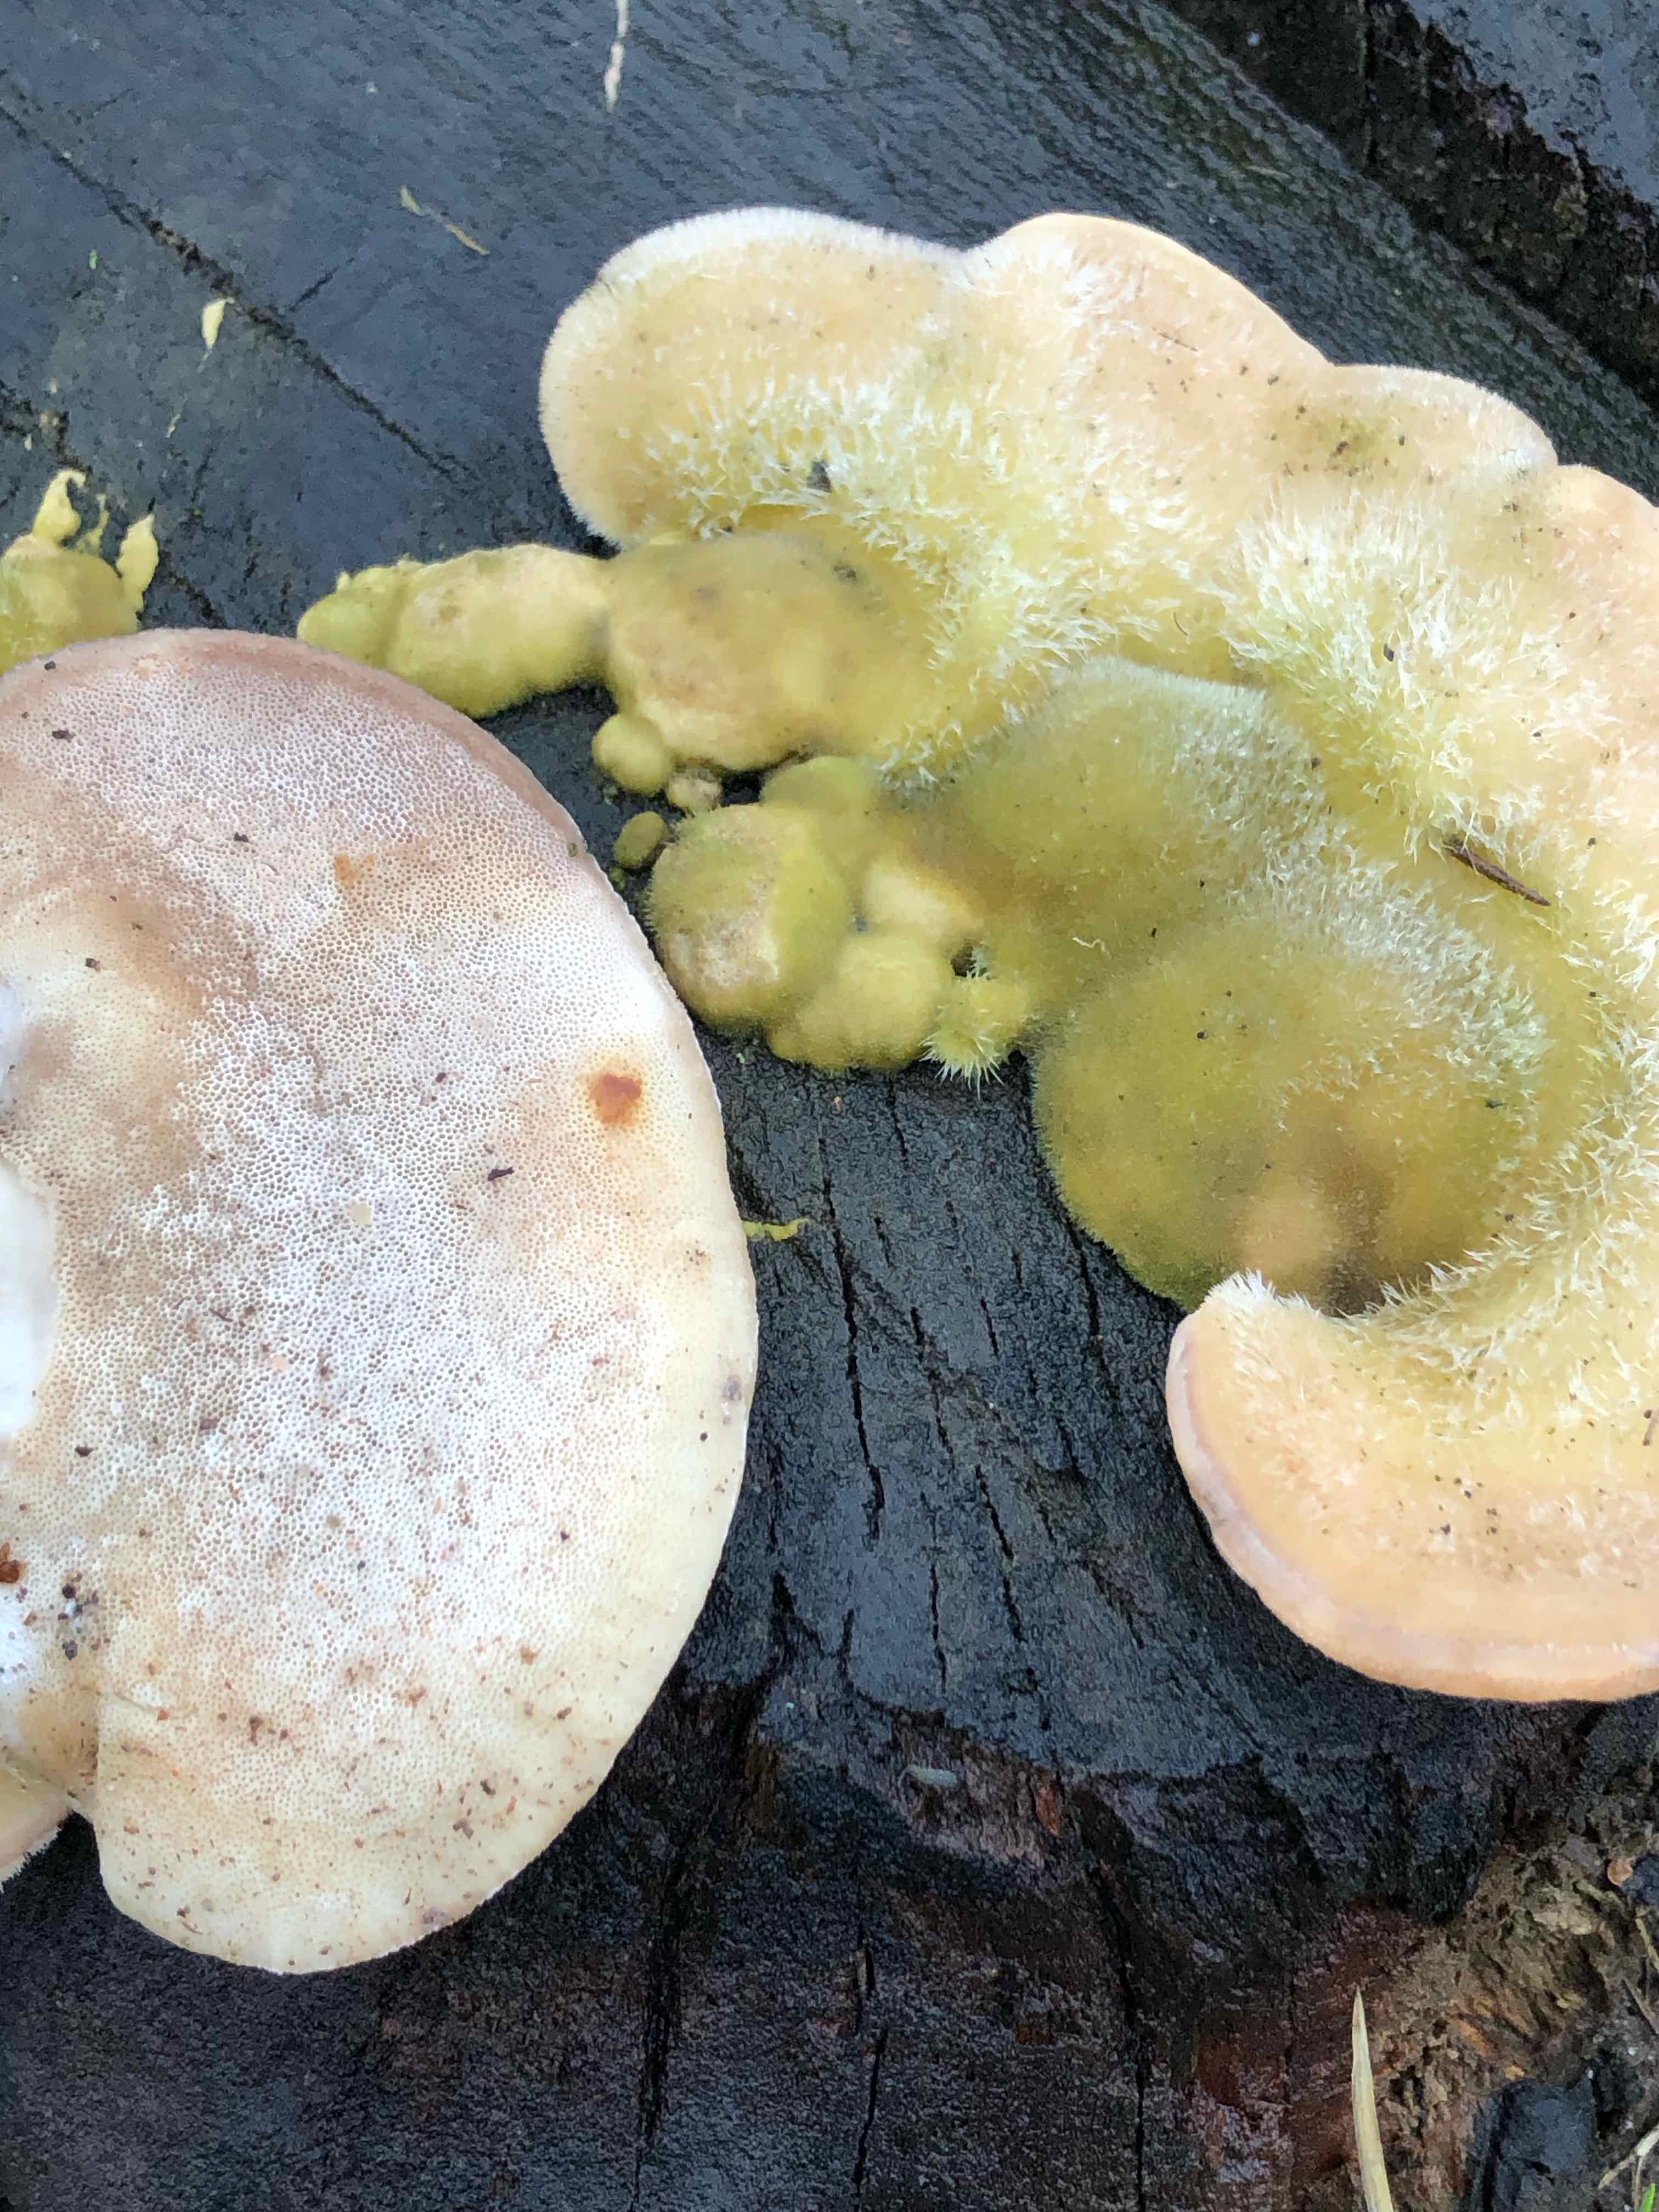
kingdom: Fungi
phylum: Basidiomycota
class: Agaricomycetes
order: Polyporales
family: Polyporaceae
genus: Trametes
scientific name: Trametes hirsuta
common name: håret læderporesvamp
